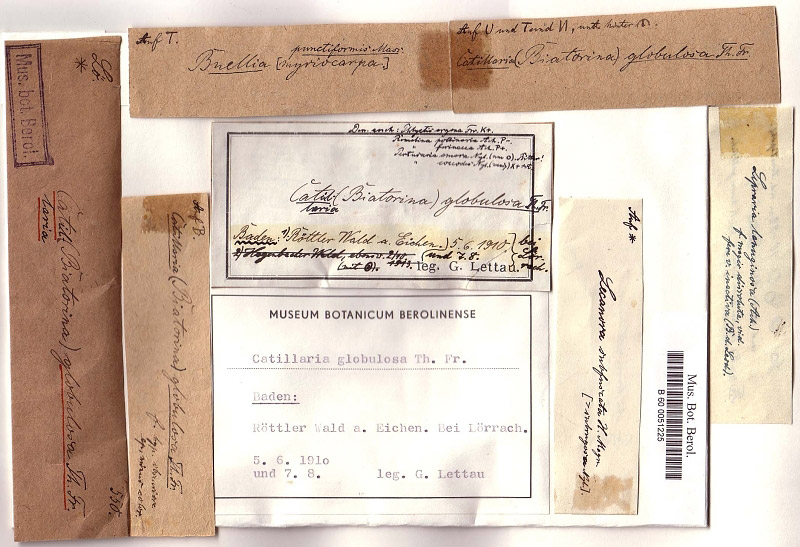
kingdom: Fungi
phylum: Ascomycota
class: Lecanoromycetes
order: Lecanorales
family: Ramalinaceae
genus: Biatora
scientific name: Biatora globulosa
